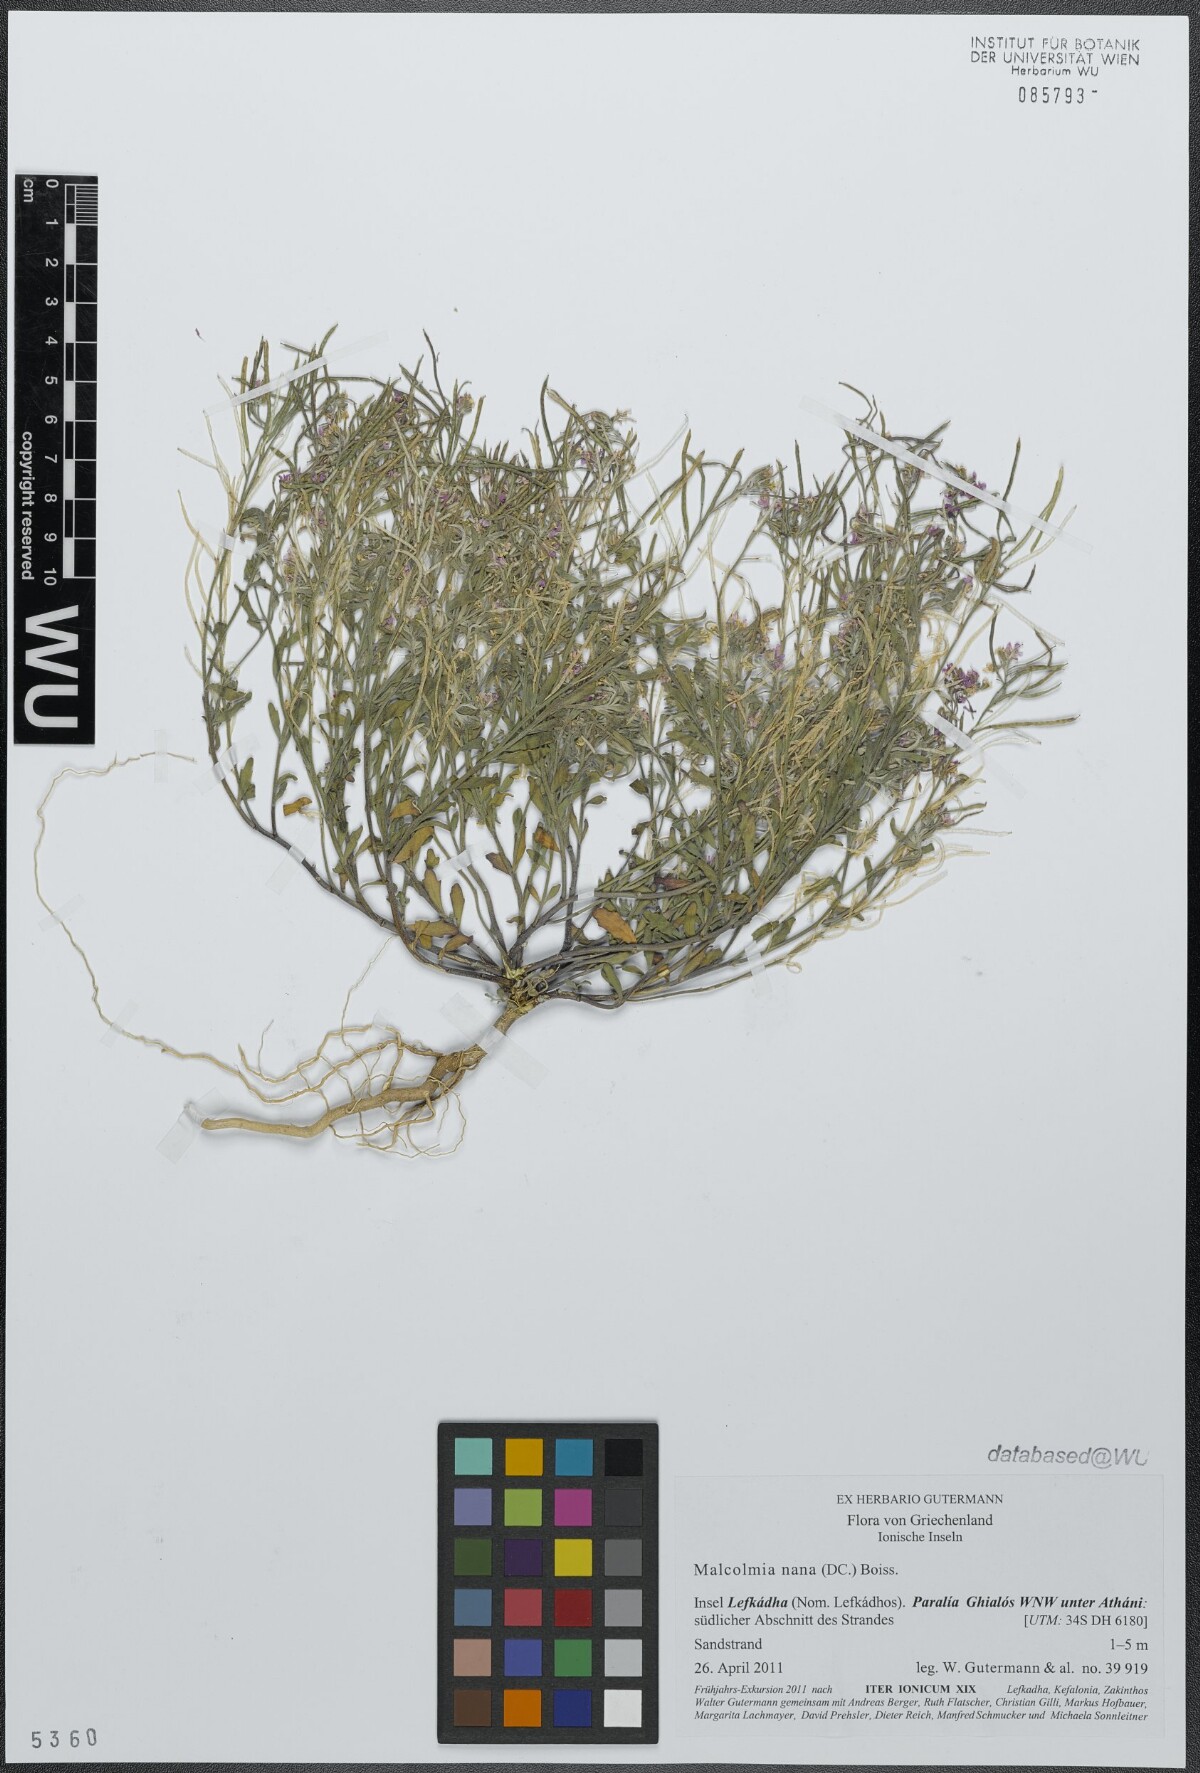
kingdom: Plantae
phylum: Tracheophyta
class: Magnoliopsida
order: Brassicales
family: Brassicaceae
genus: Maresia
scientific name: Maresia nana
